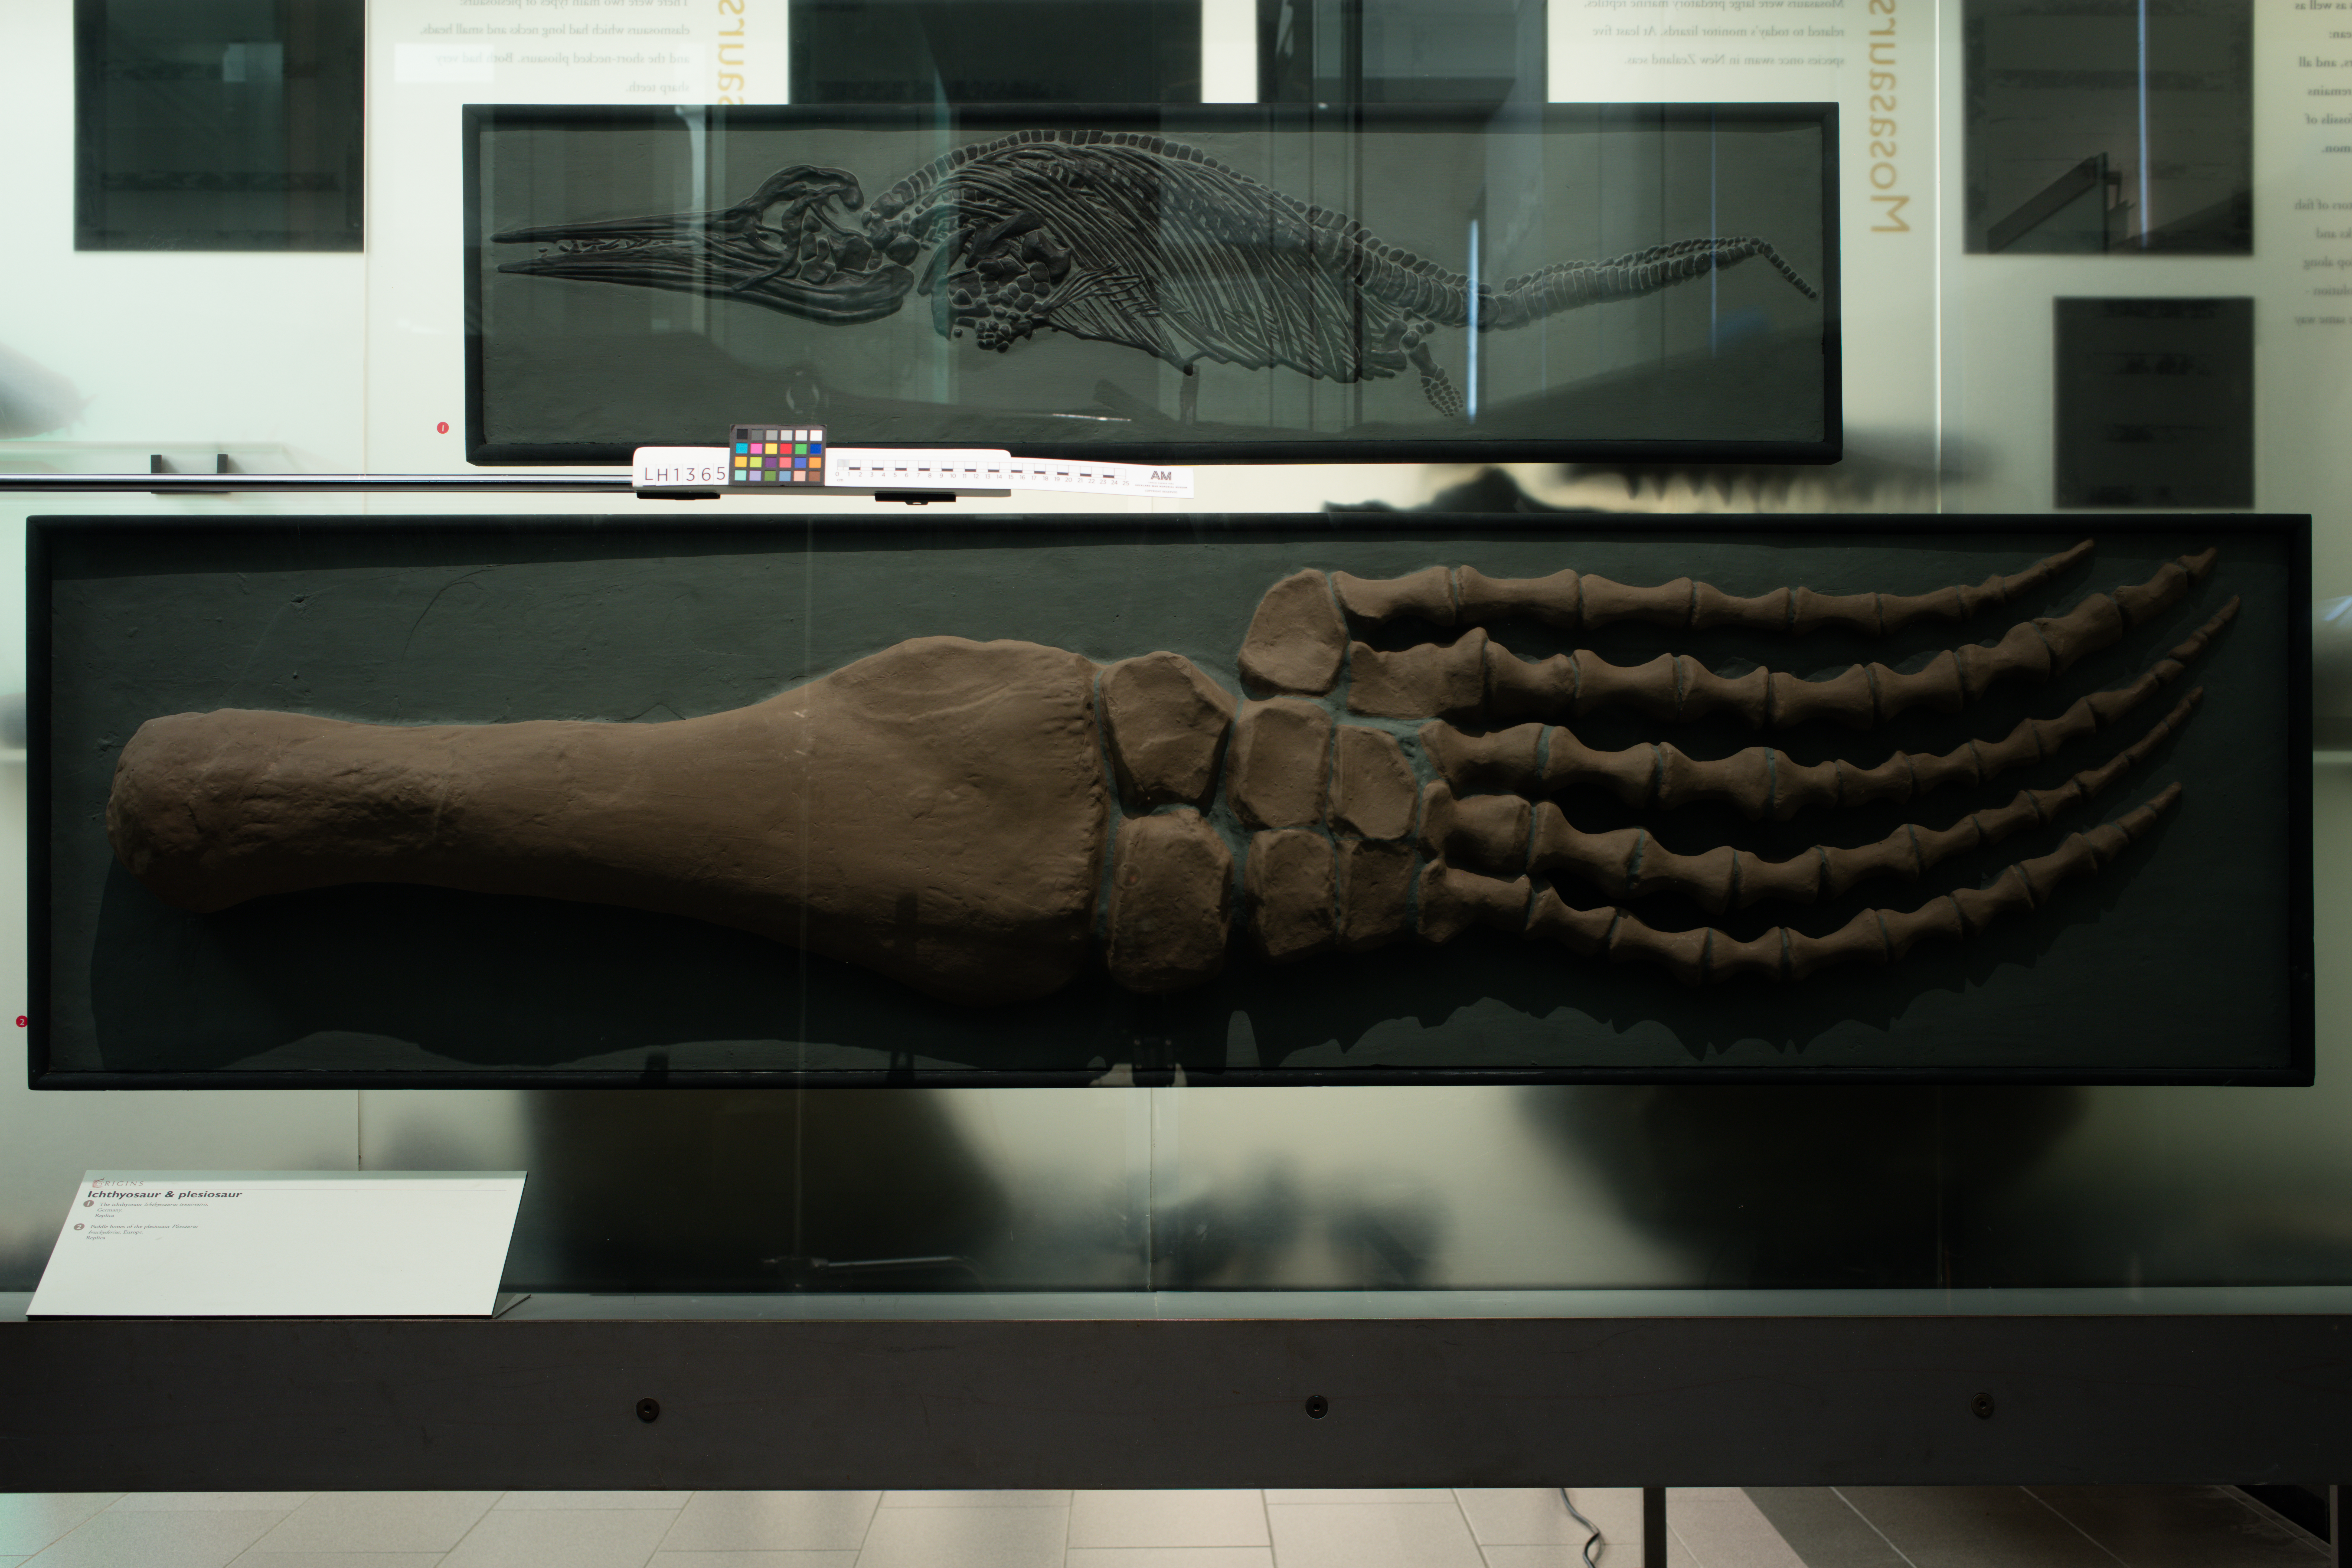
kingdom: Animalia
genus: Pliosaurus
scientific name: Pliosaurus brachydeirus
